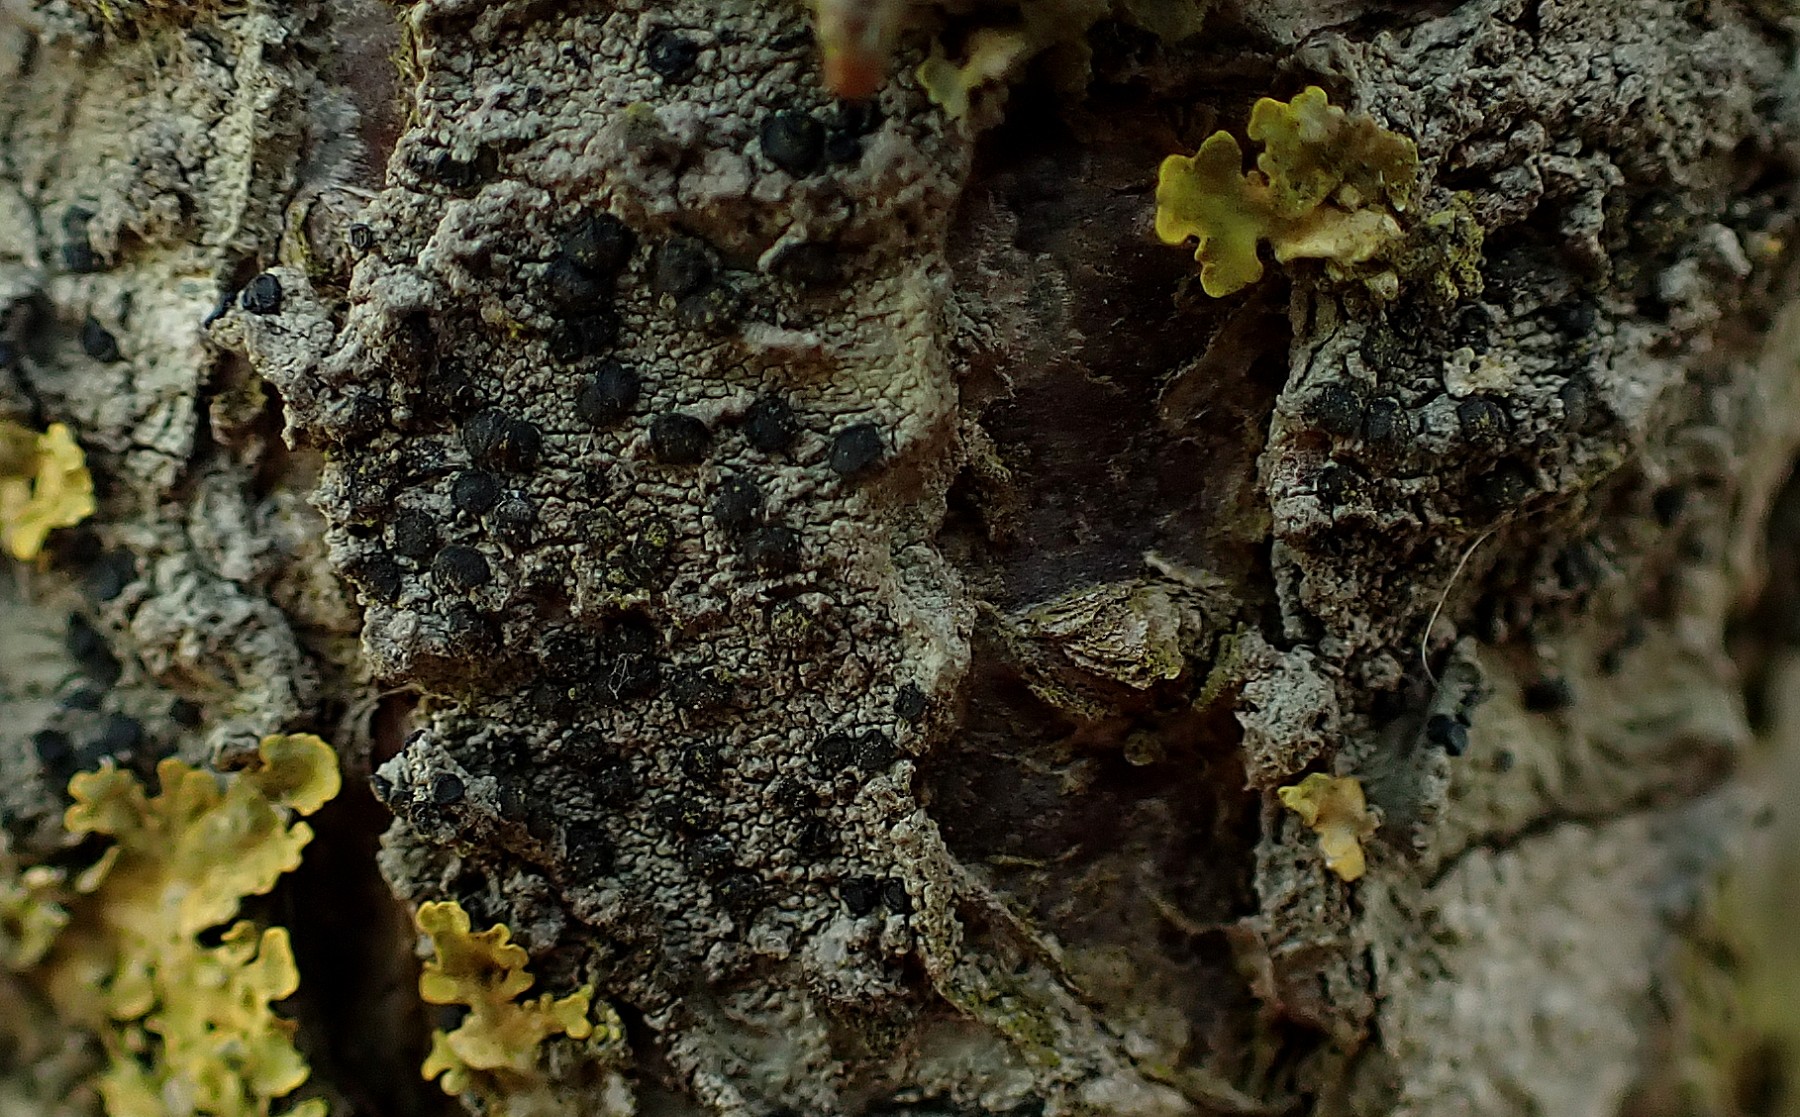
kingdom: Fungi
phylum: Ascomycota
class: Lecanoromycetes
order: Lecanorales
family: Lecanoraceae
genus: Lecidella
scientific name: Lecidella elaeochroma
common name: grågrøn skivelav
